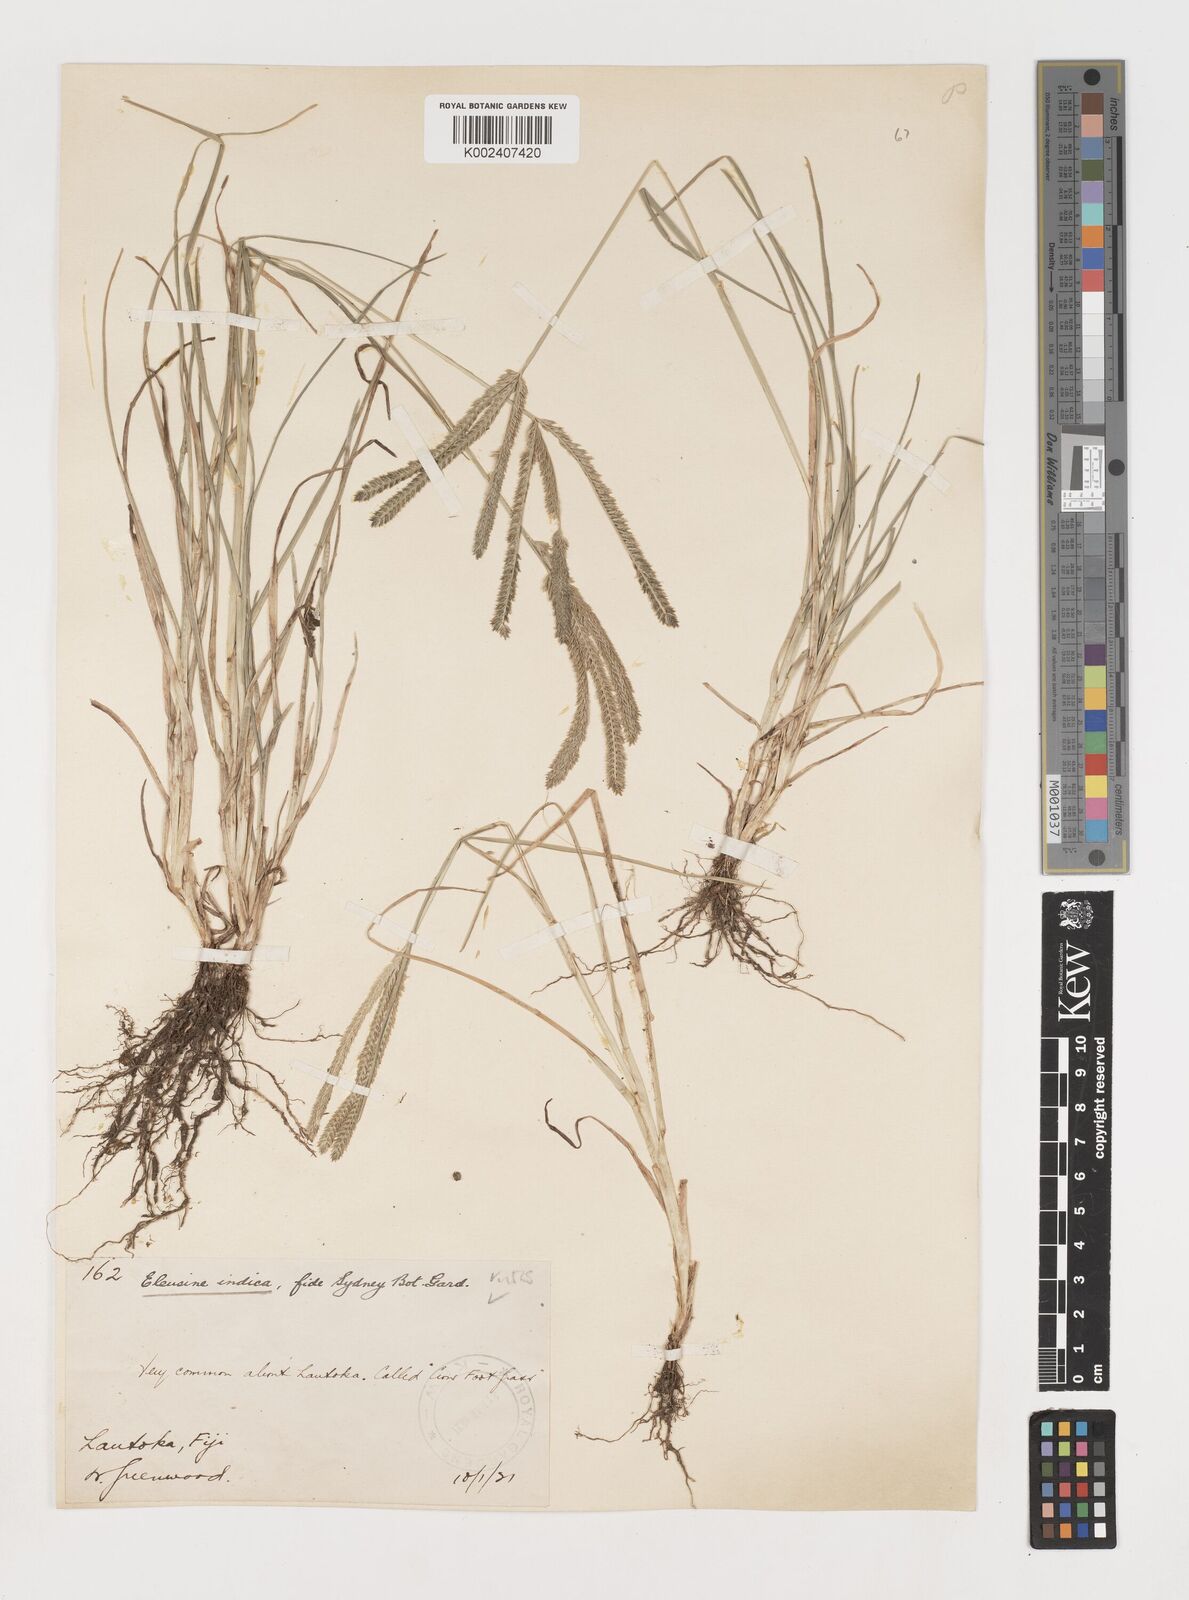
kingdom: Plantae
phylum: Tracheophyta
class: Liliopsida
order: Poales
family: Poaceae
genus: Eleusine
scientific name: Eleusine indica
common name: Yard-grass
